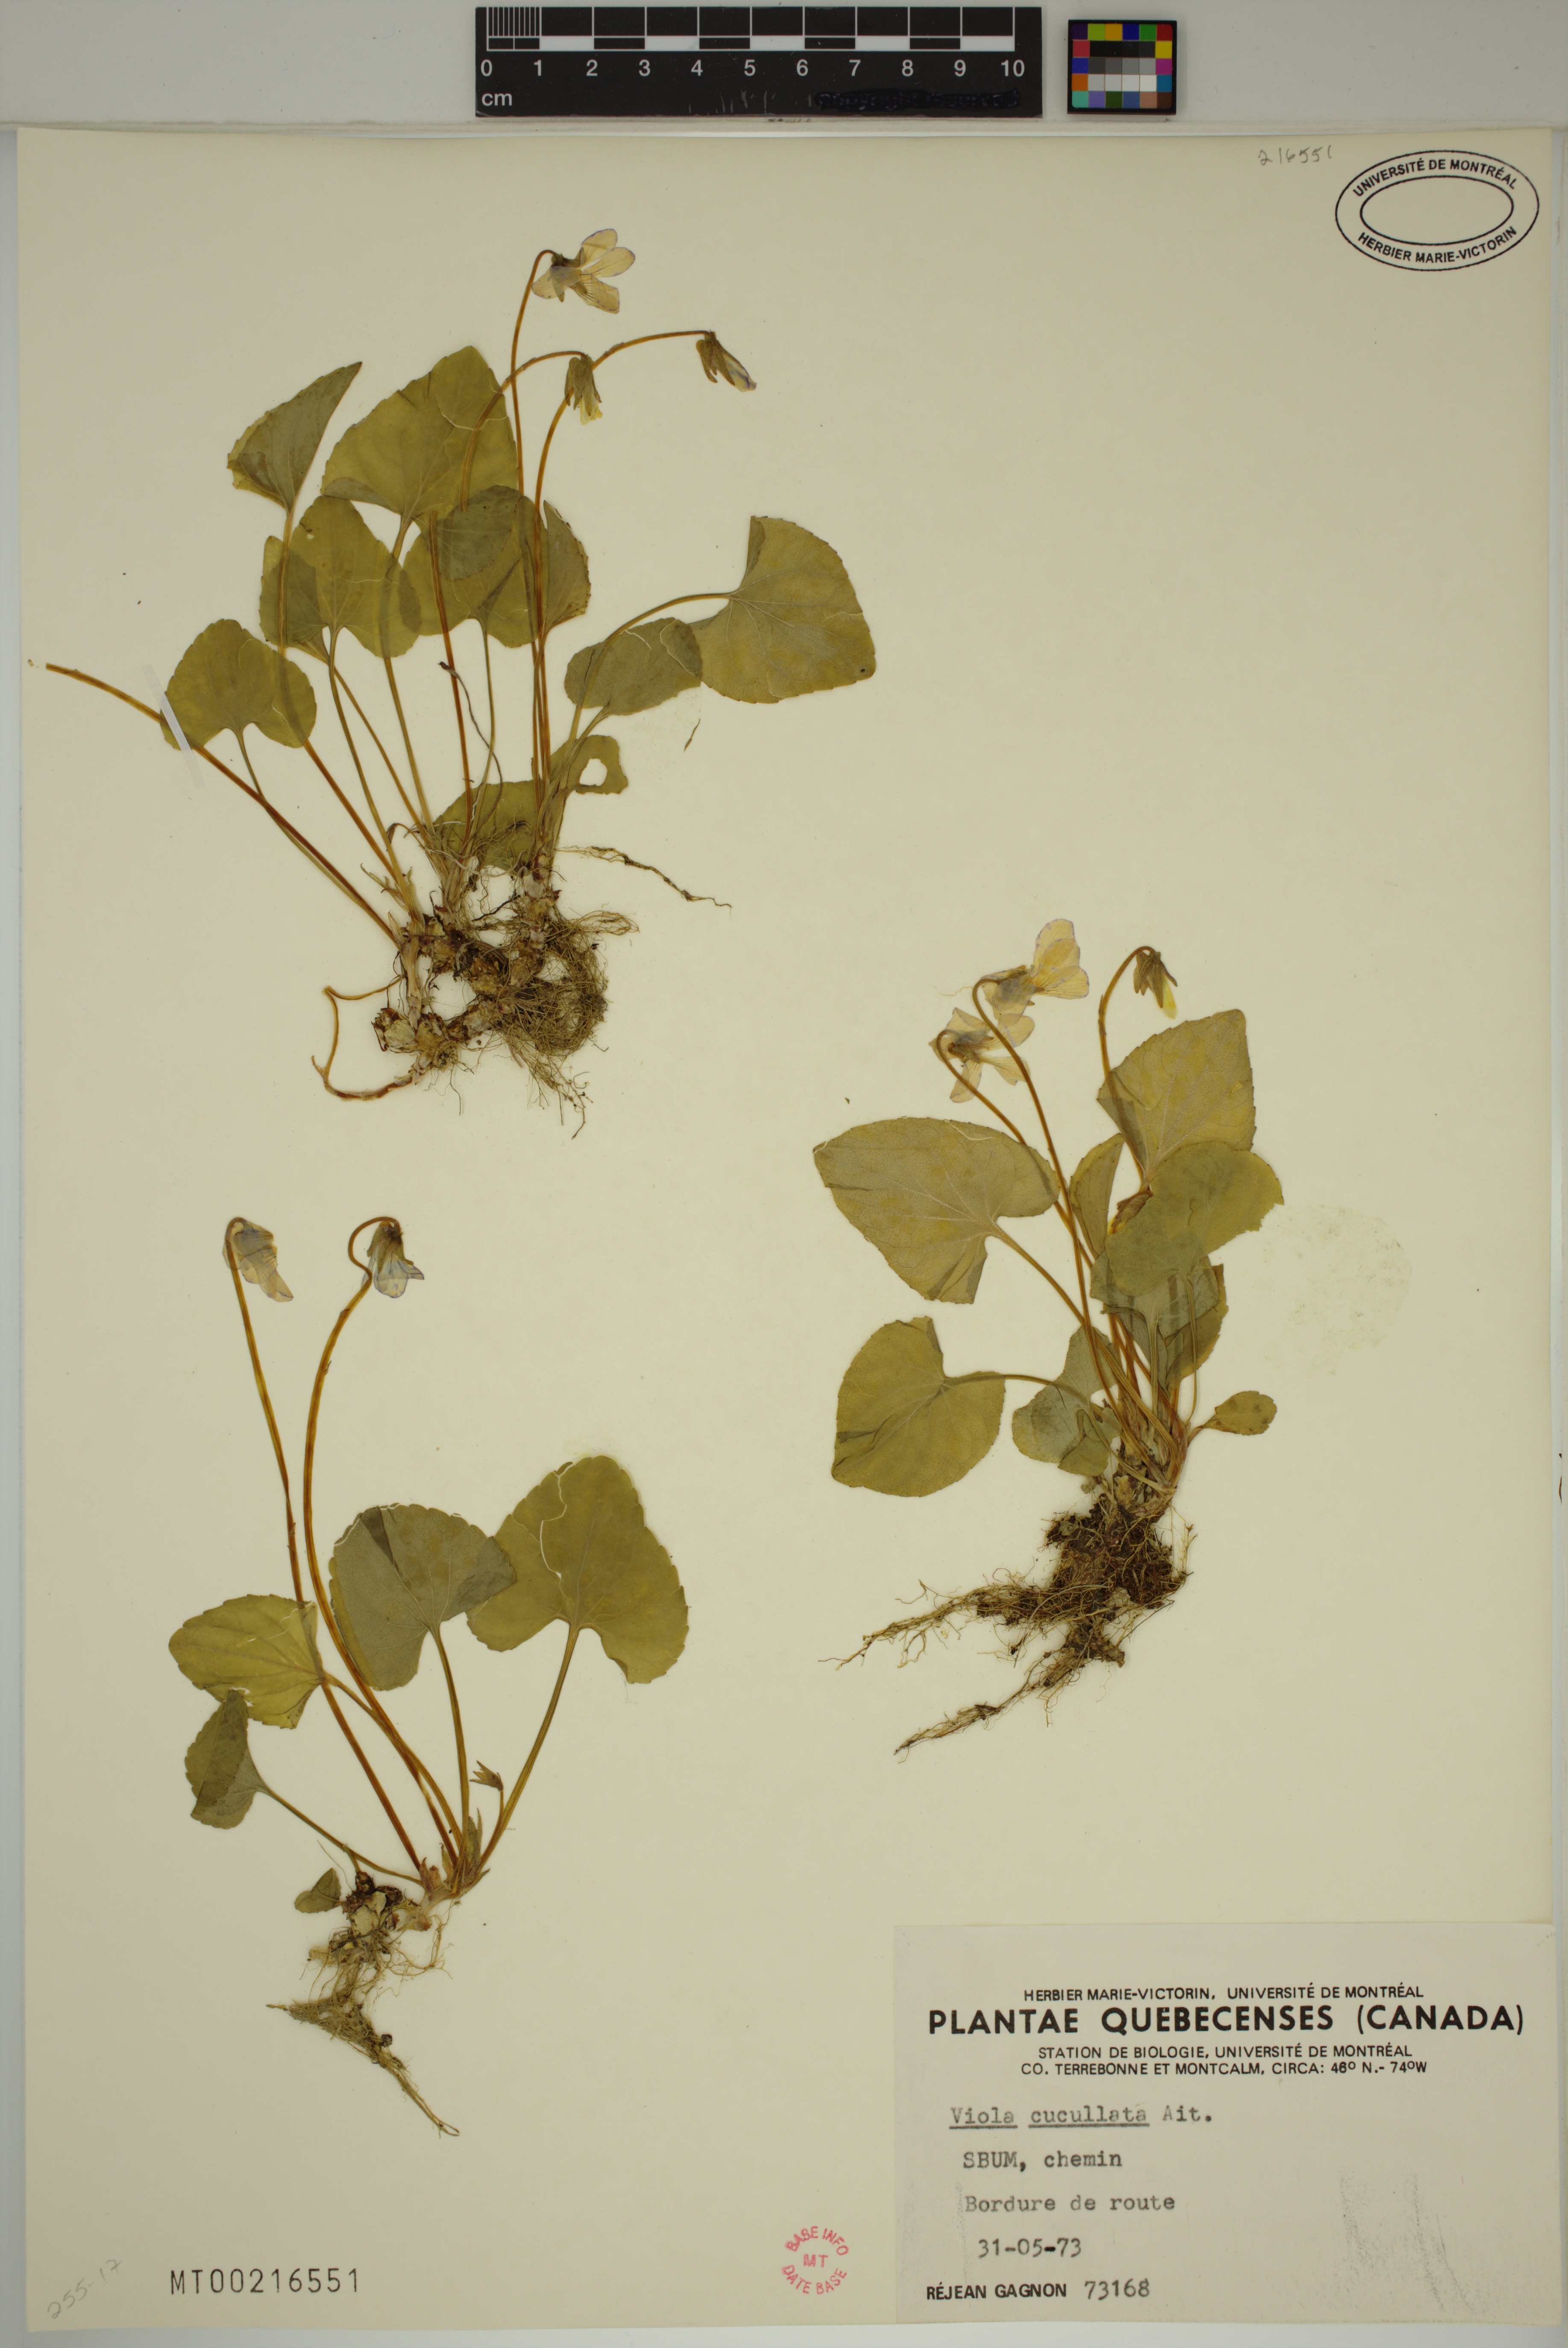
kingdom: Plantae
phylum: Tracheophyta
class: Magnoliopsida
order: Malpighiales
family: Violaceae
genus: Viola
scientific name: Viola cucullata
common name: Marsh blue violet
